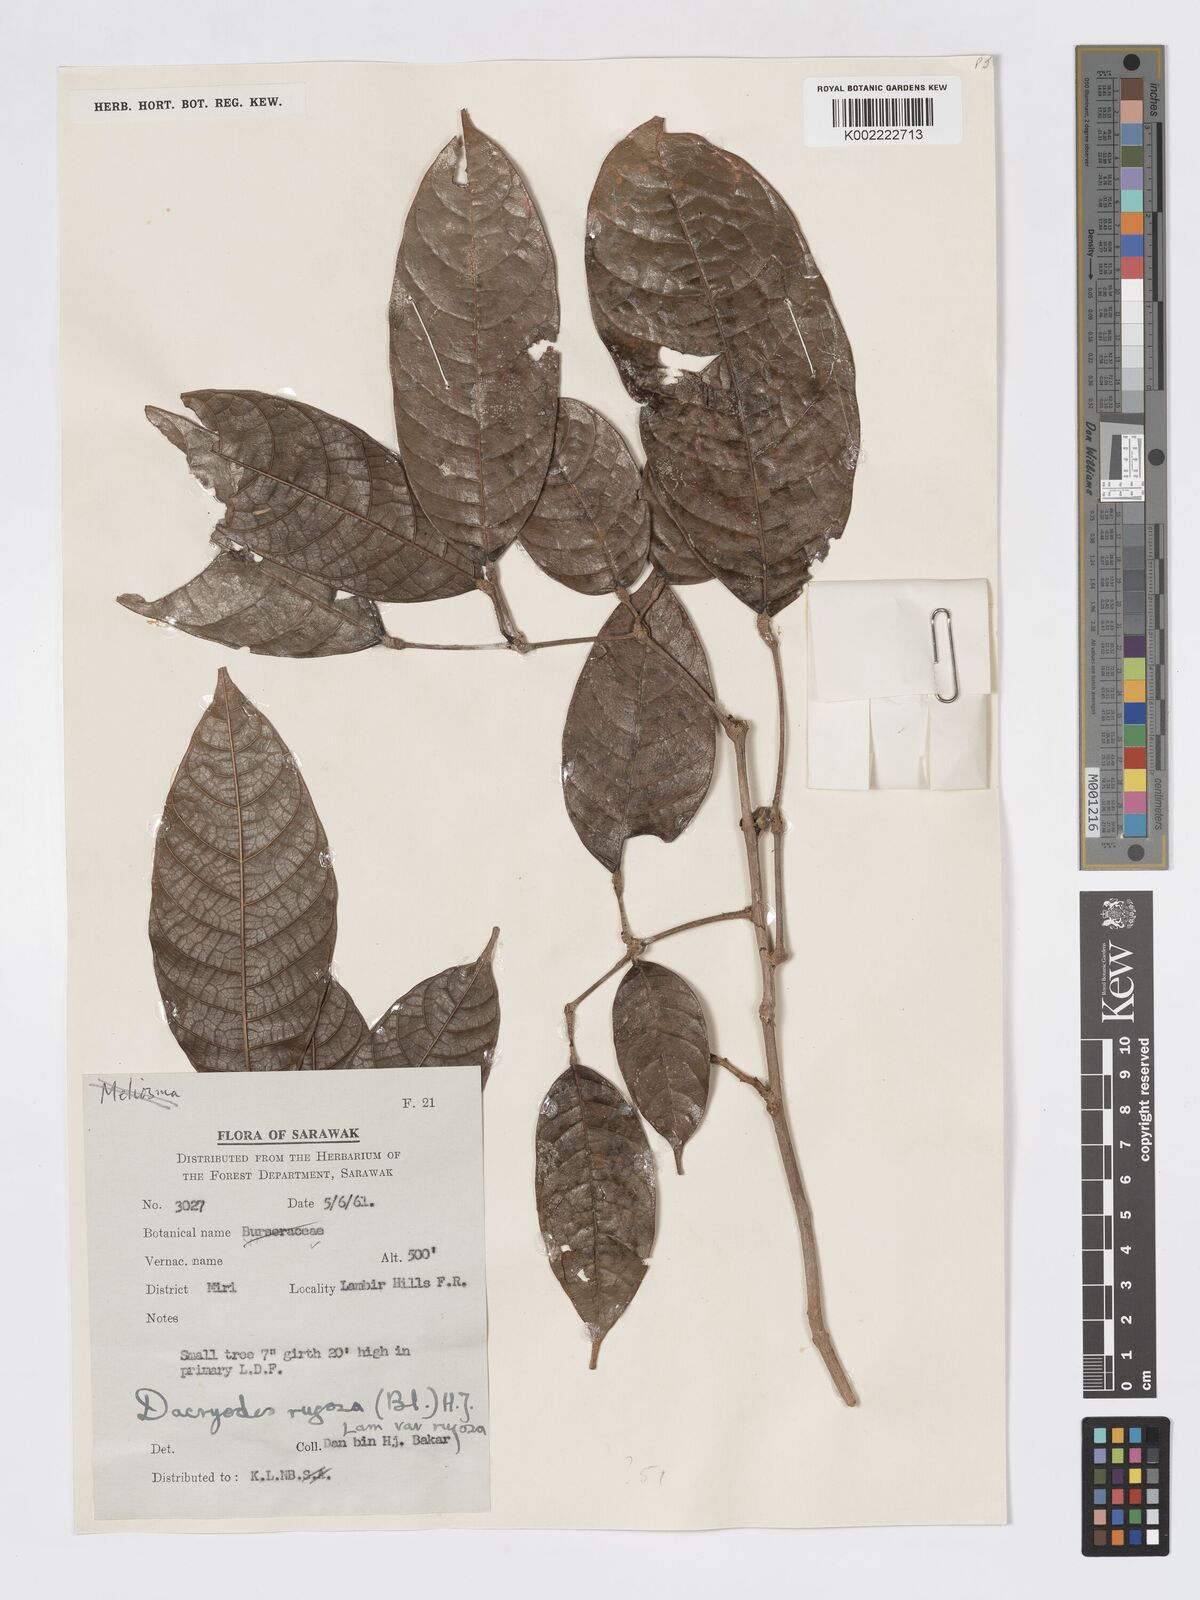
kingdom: Plantae
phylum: Tracheophyta
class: Magnoliopsida
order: Sapindales
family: Burseraceae
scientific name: Burseraceae
